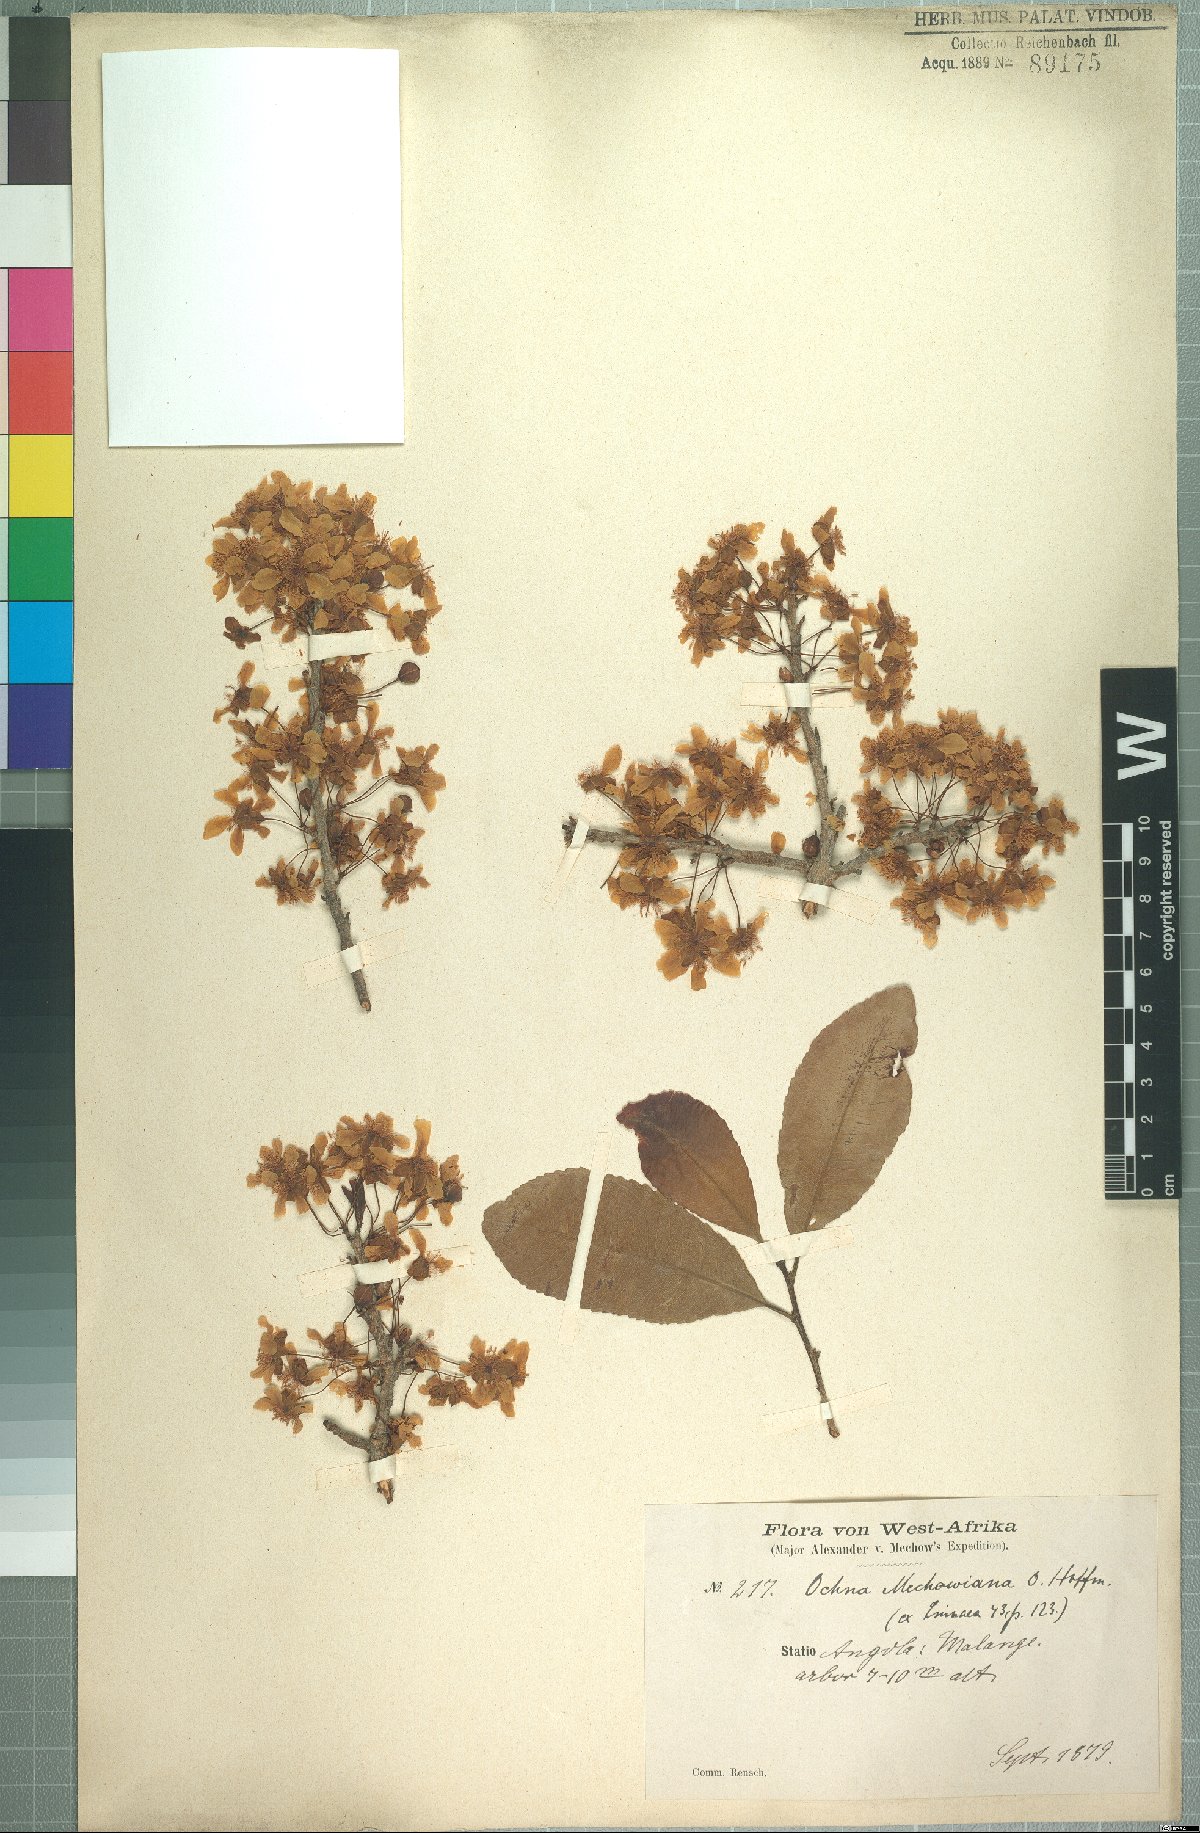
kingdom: Plantae
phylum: Tracheophyta
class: Magnoliopsida
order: Malpighiales
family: Ochnaceae
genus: Ochna
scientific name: Ochna afzelii
